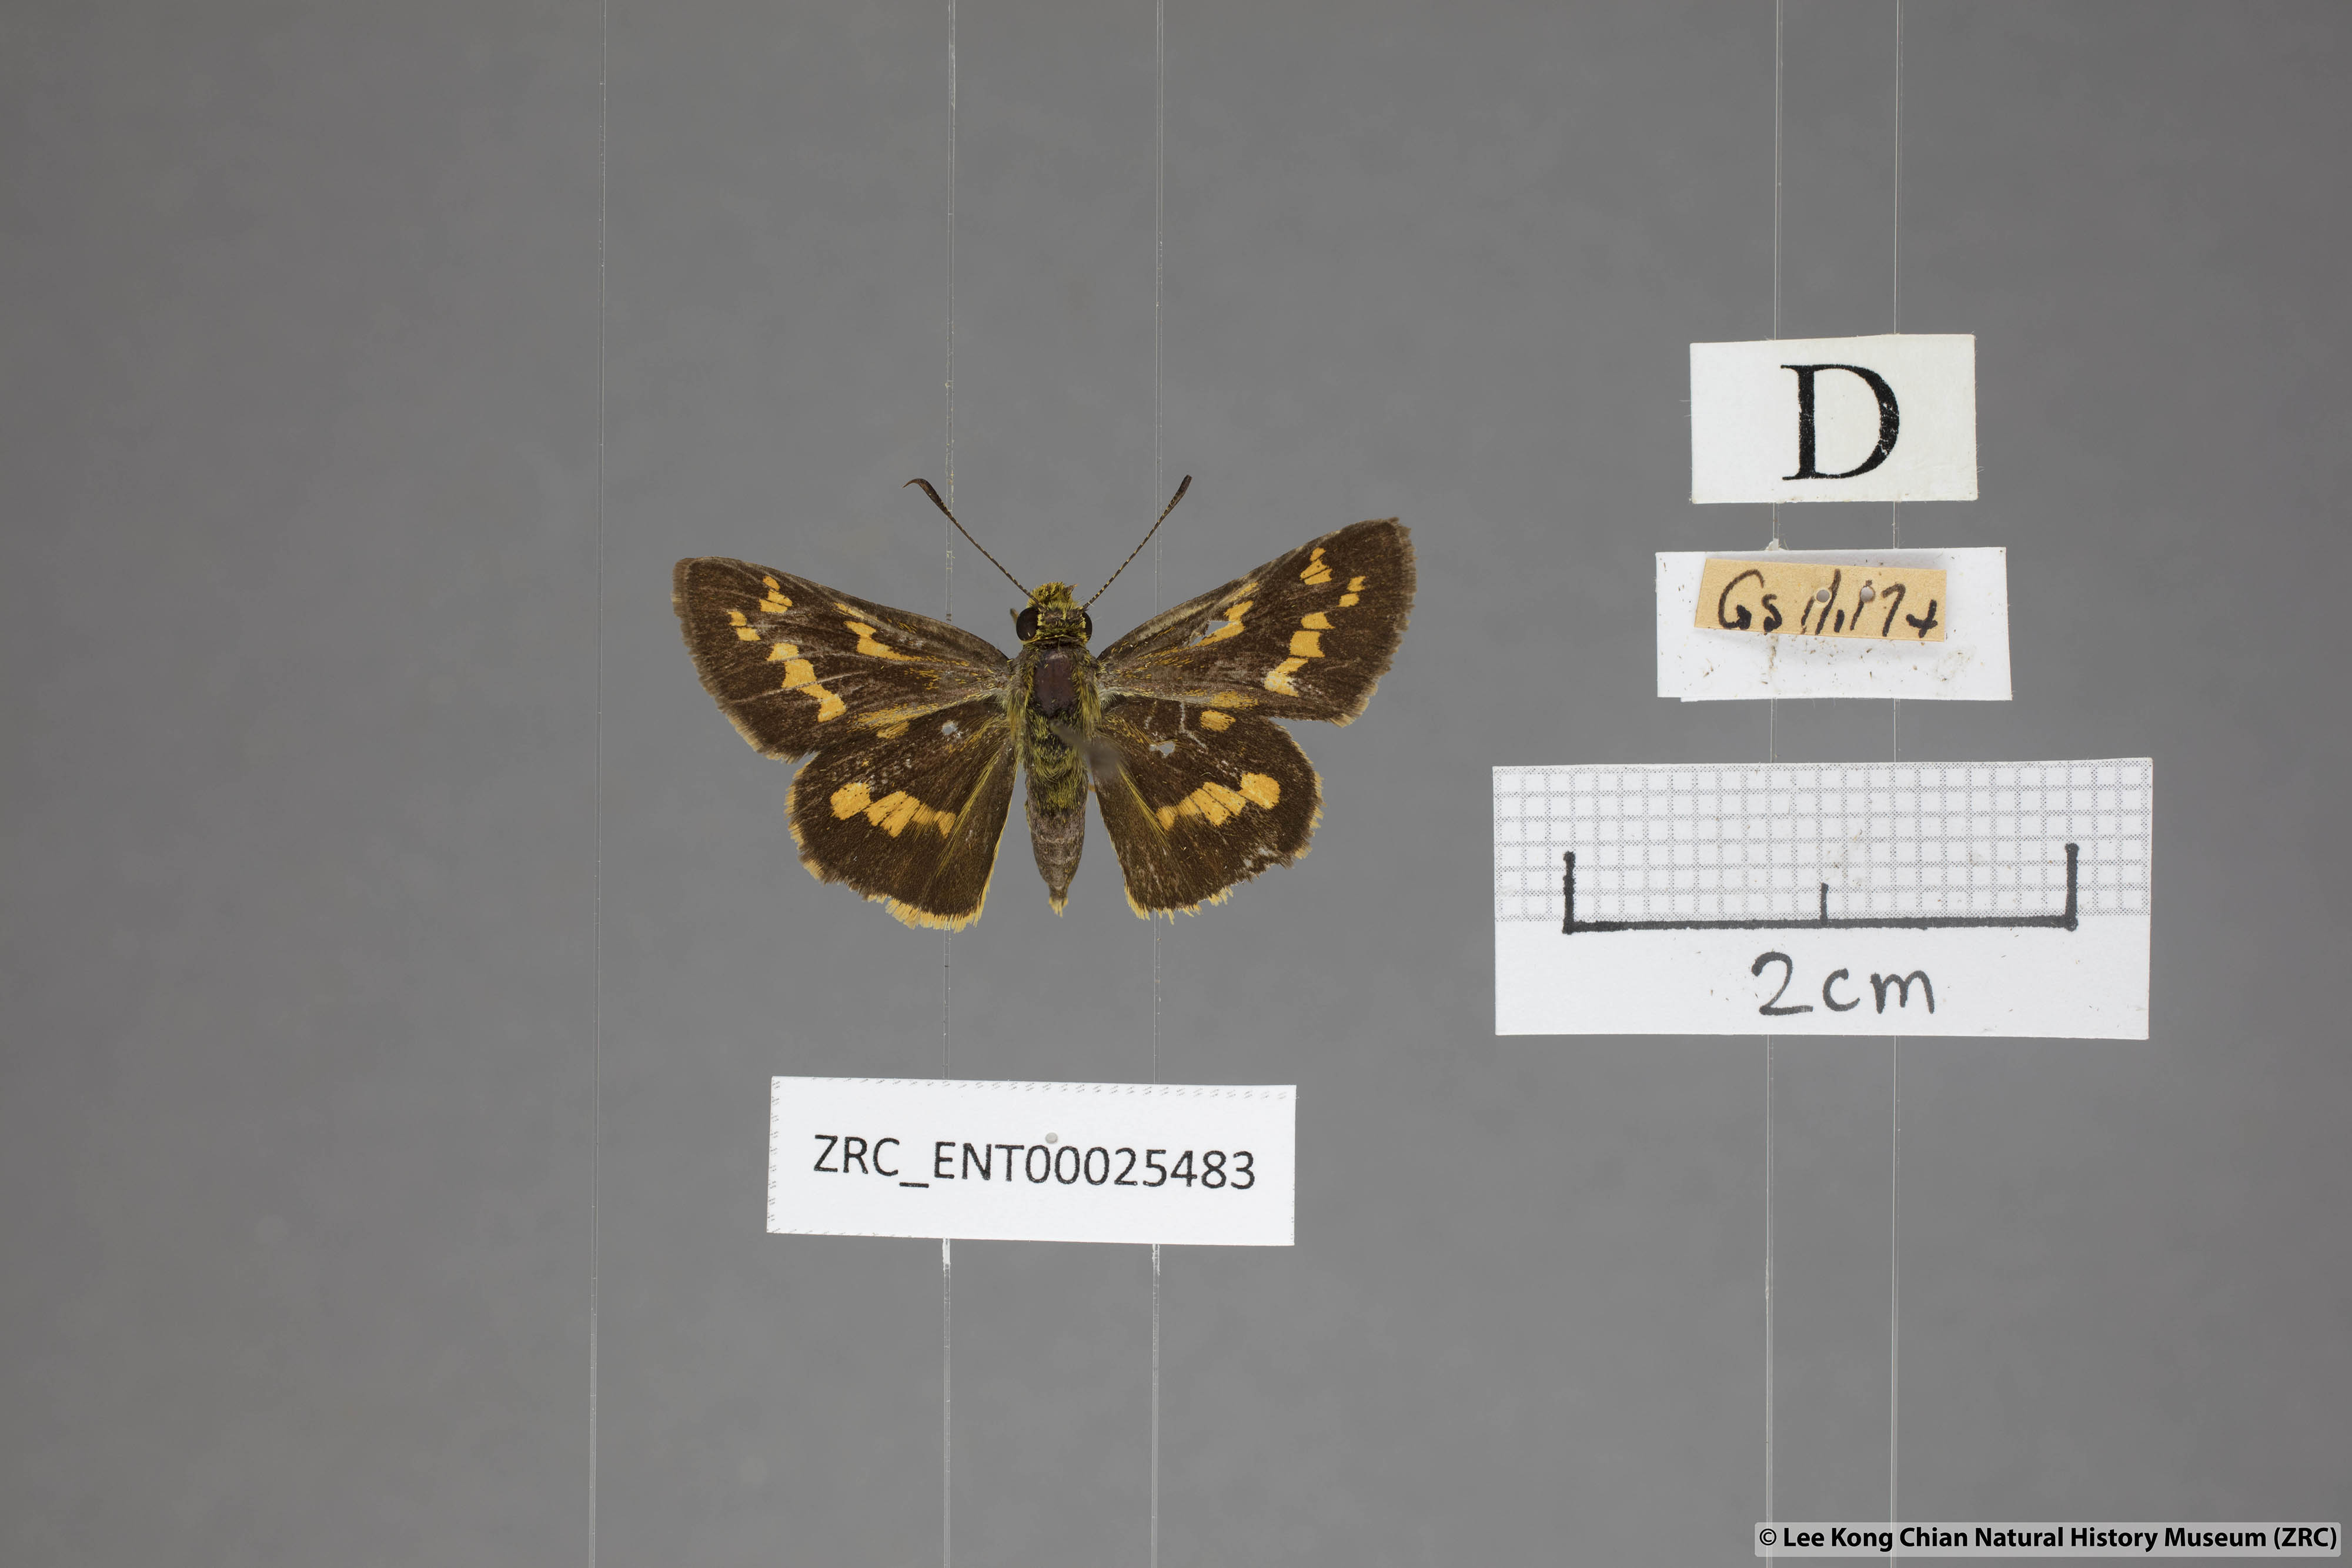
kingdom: Animalia
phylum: Arthropoda
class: Insecta
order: Lepidoptera
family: Hesperiidae
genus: Potanthus
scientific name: Potanthus trachala
